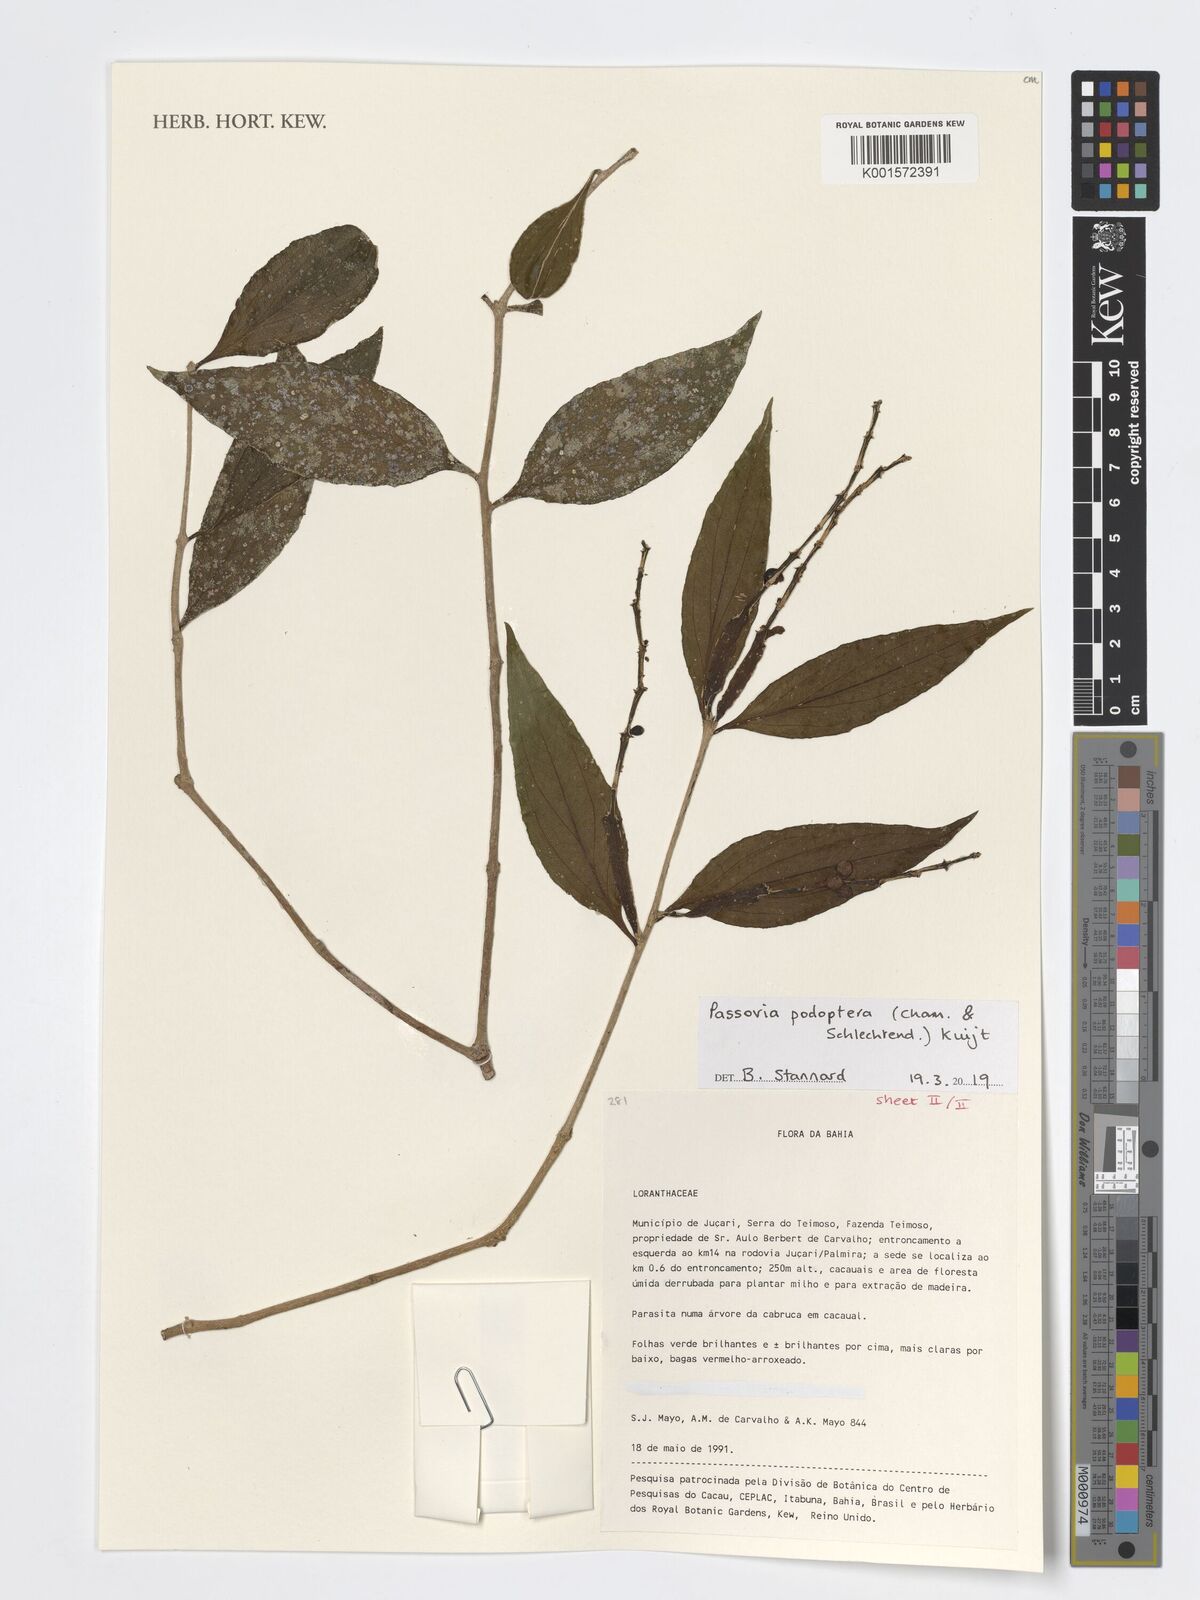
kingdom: Plantae
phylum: Tracheophyta
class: Magnoliopsida
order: Santalales
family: Loranthaceae
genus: Passovia
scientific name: Passovia podoptera
